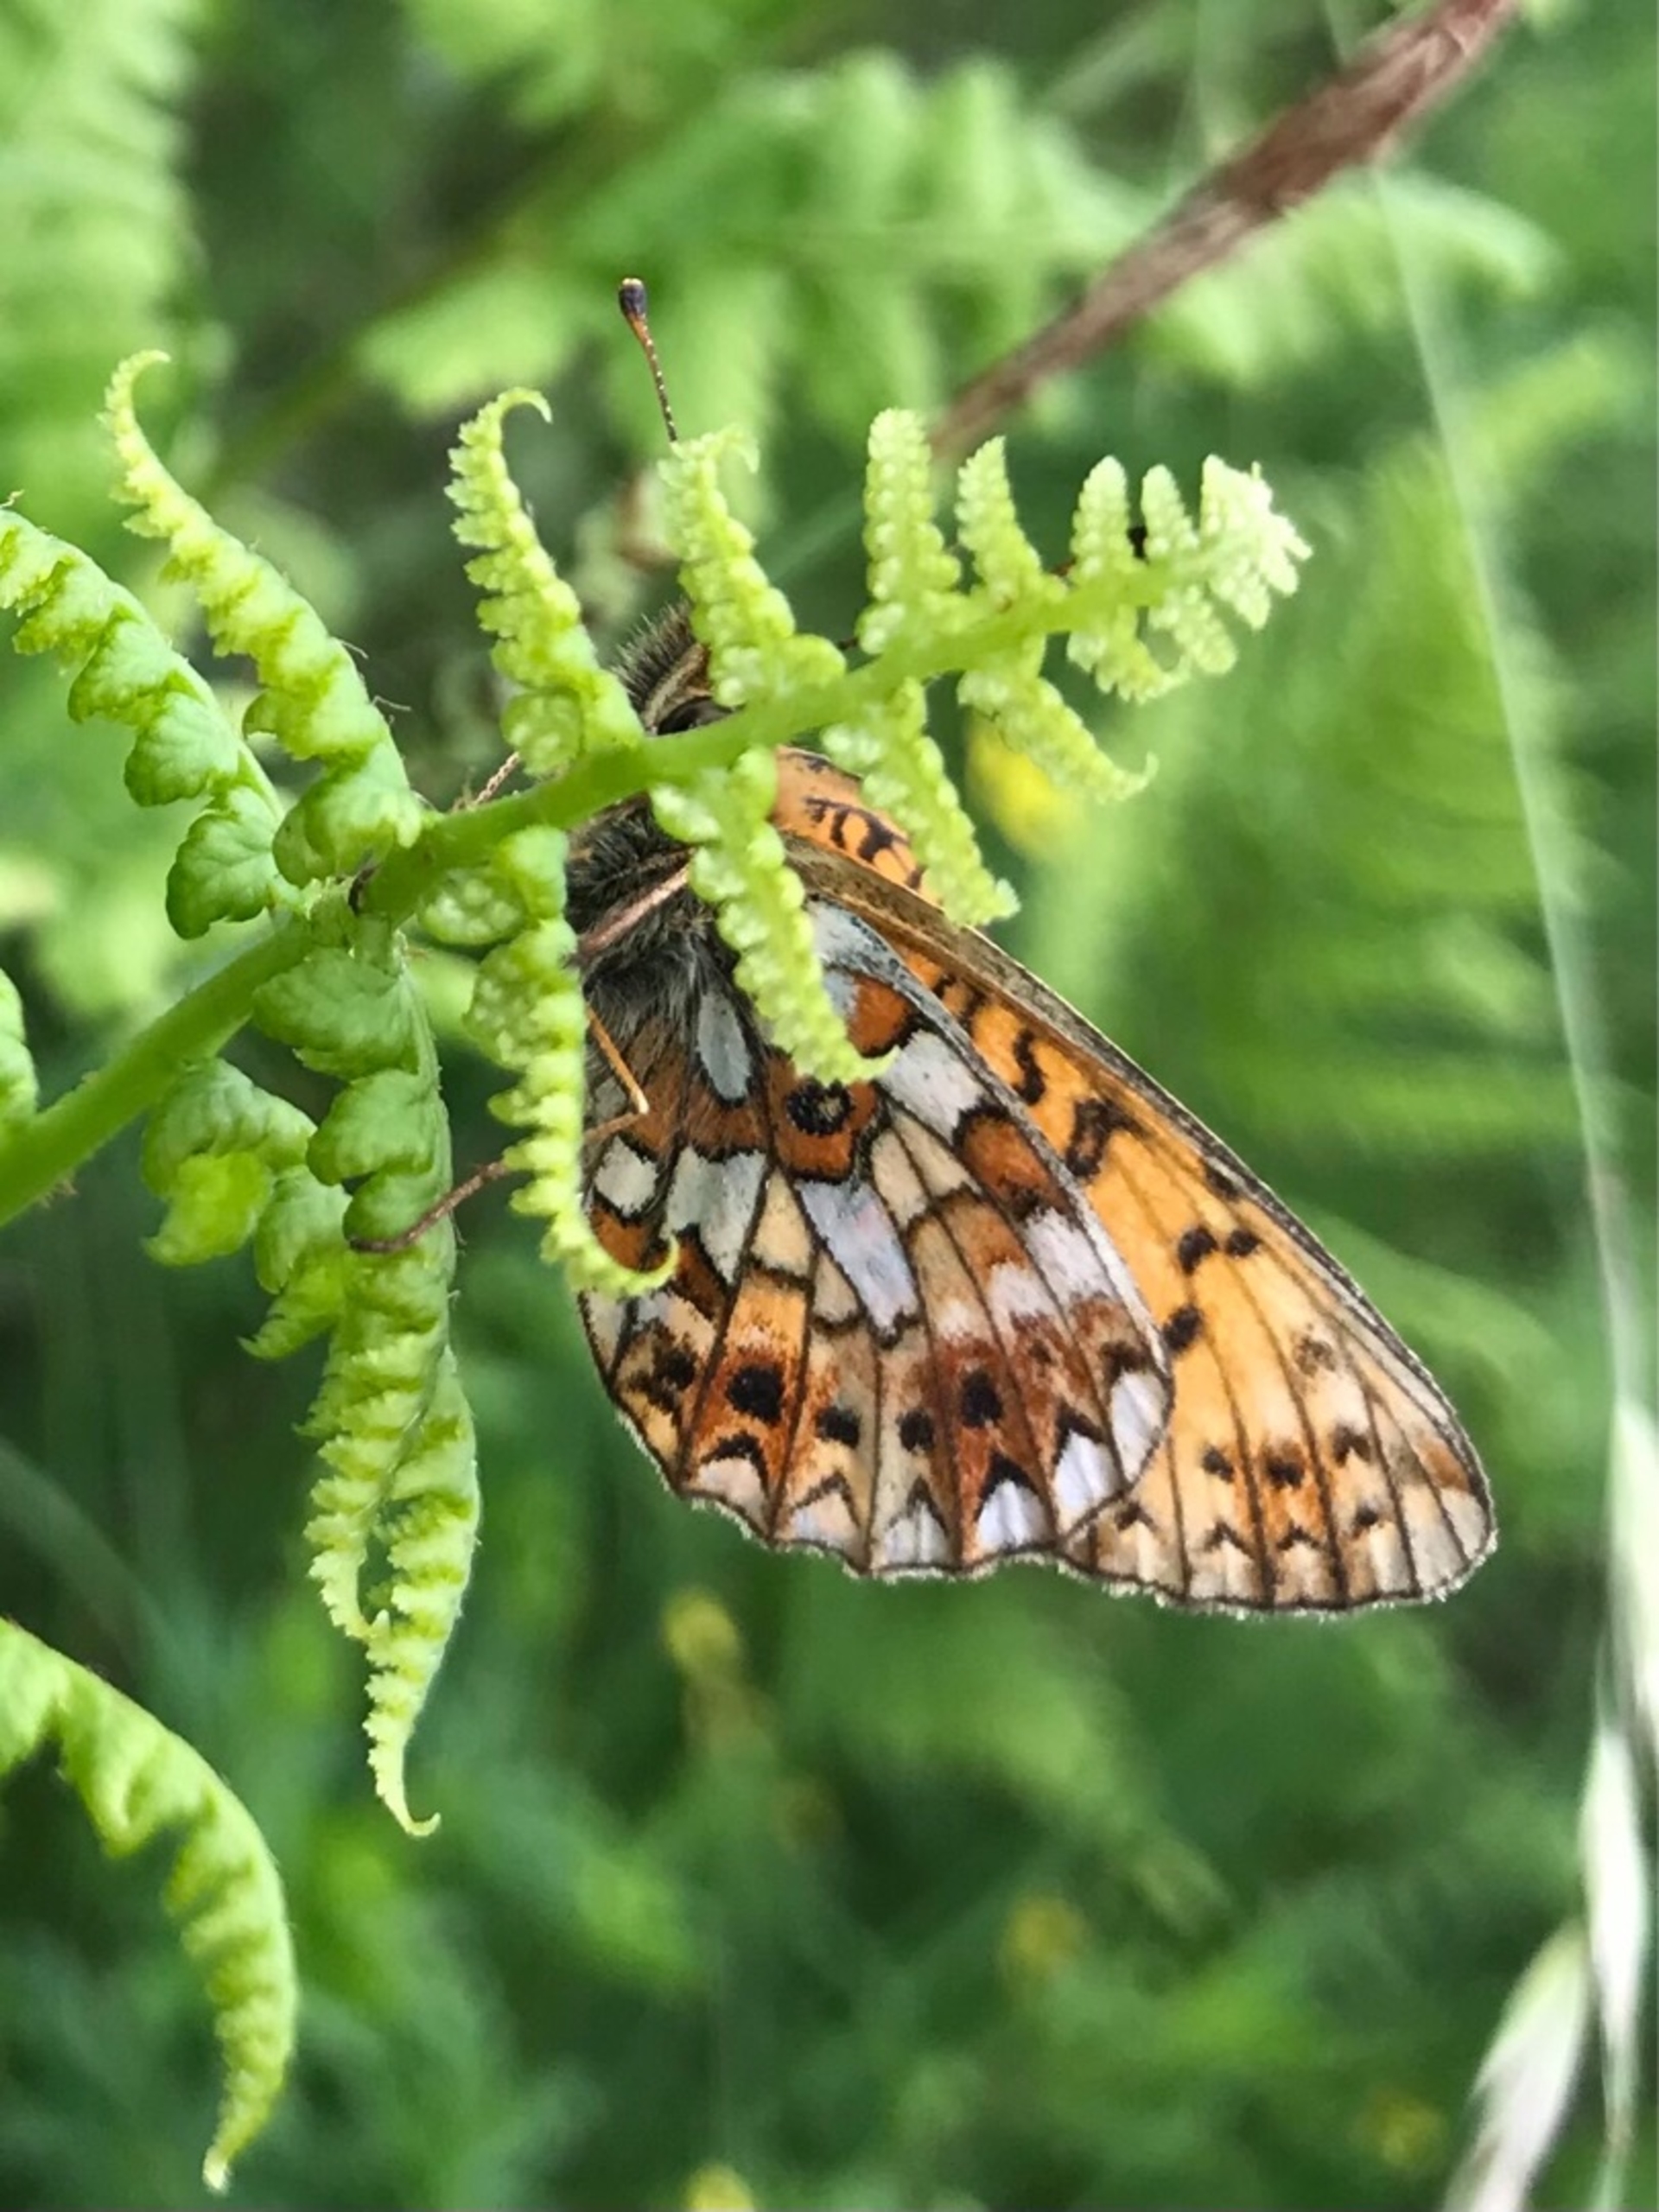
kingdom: Animalia
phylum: Arthropoda
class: Insecta
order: Lepidoptera
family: Nymphalidae
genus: Boloria
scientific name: Boloria selene
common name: Brunlig perlemorsommerfugl
